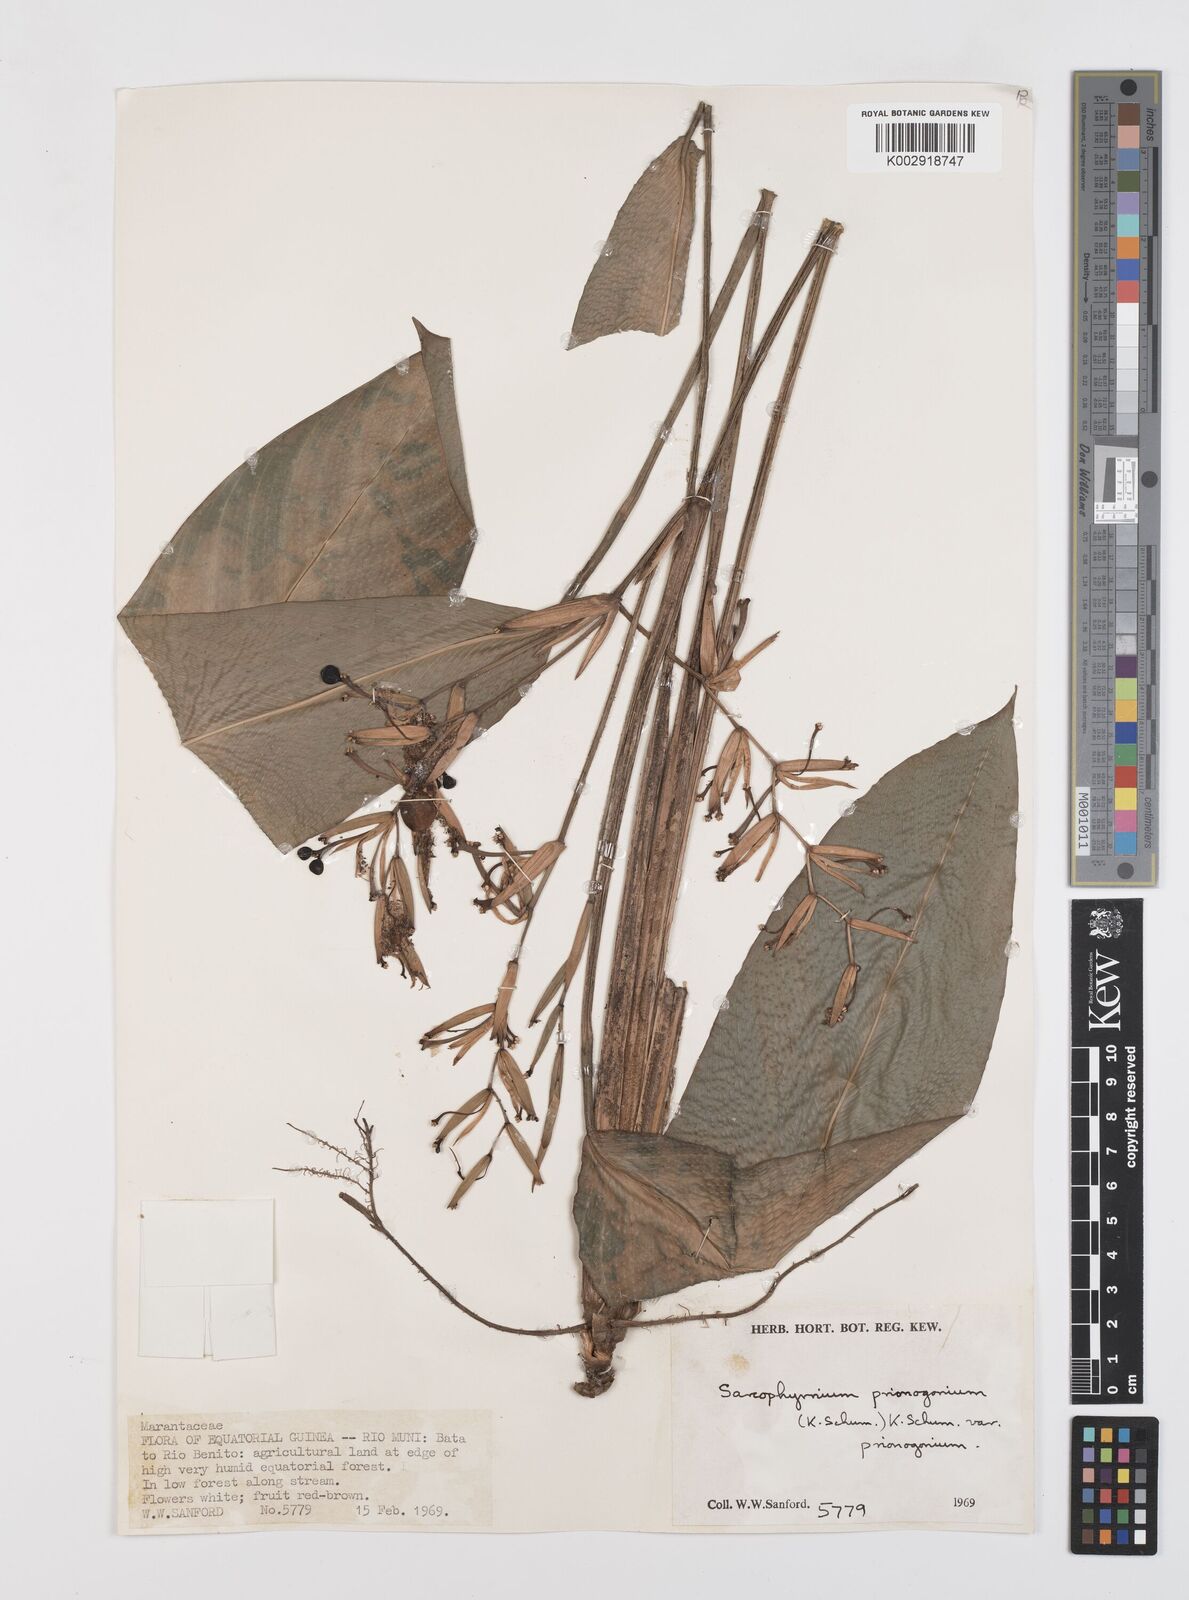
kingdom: Plantae
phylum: Tracheophyta
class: Liliopsida
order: Zingiberales
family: Marantaceae
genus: Sarcophrynium
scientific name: Sarcophrynium prionogonium
